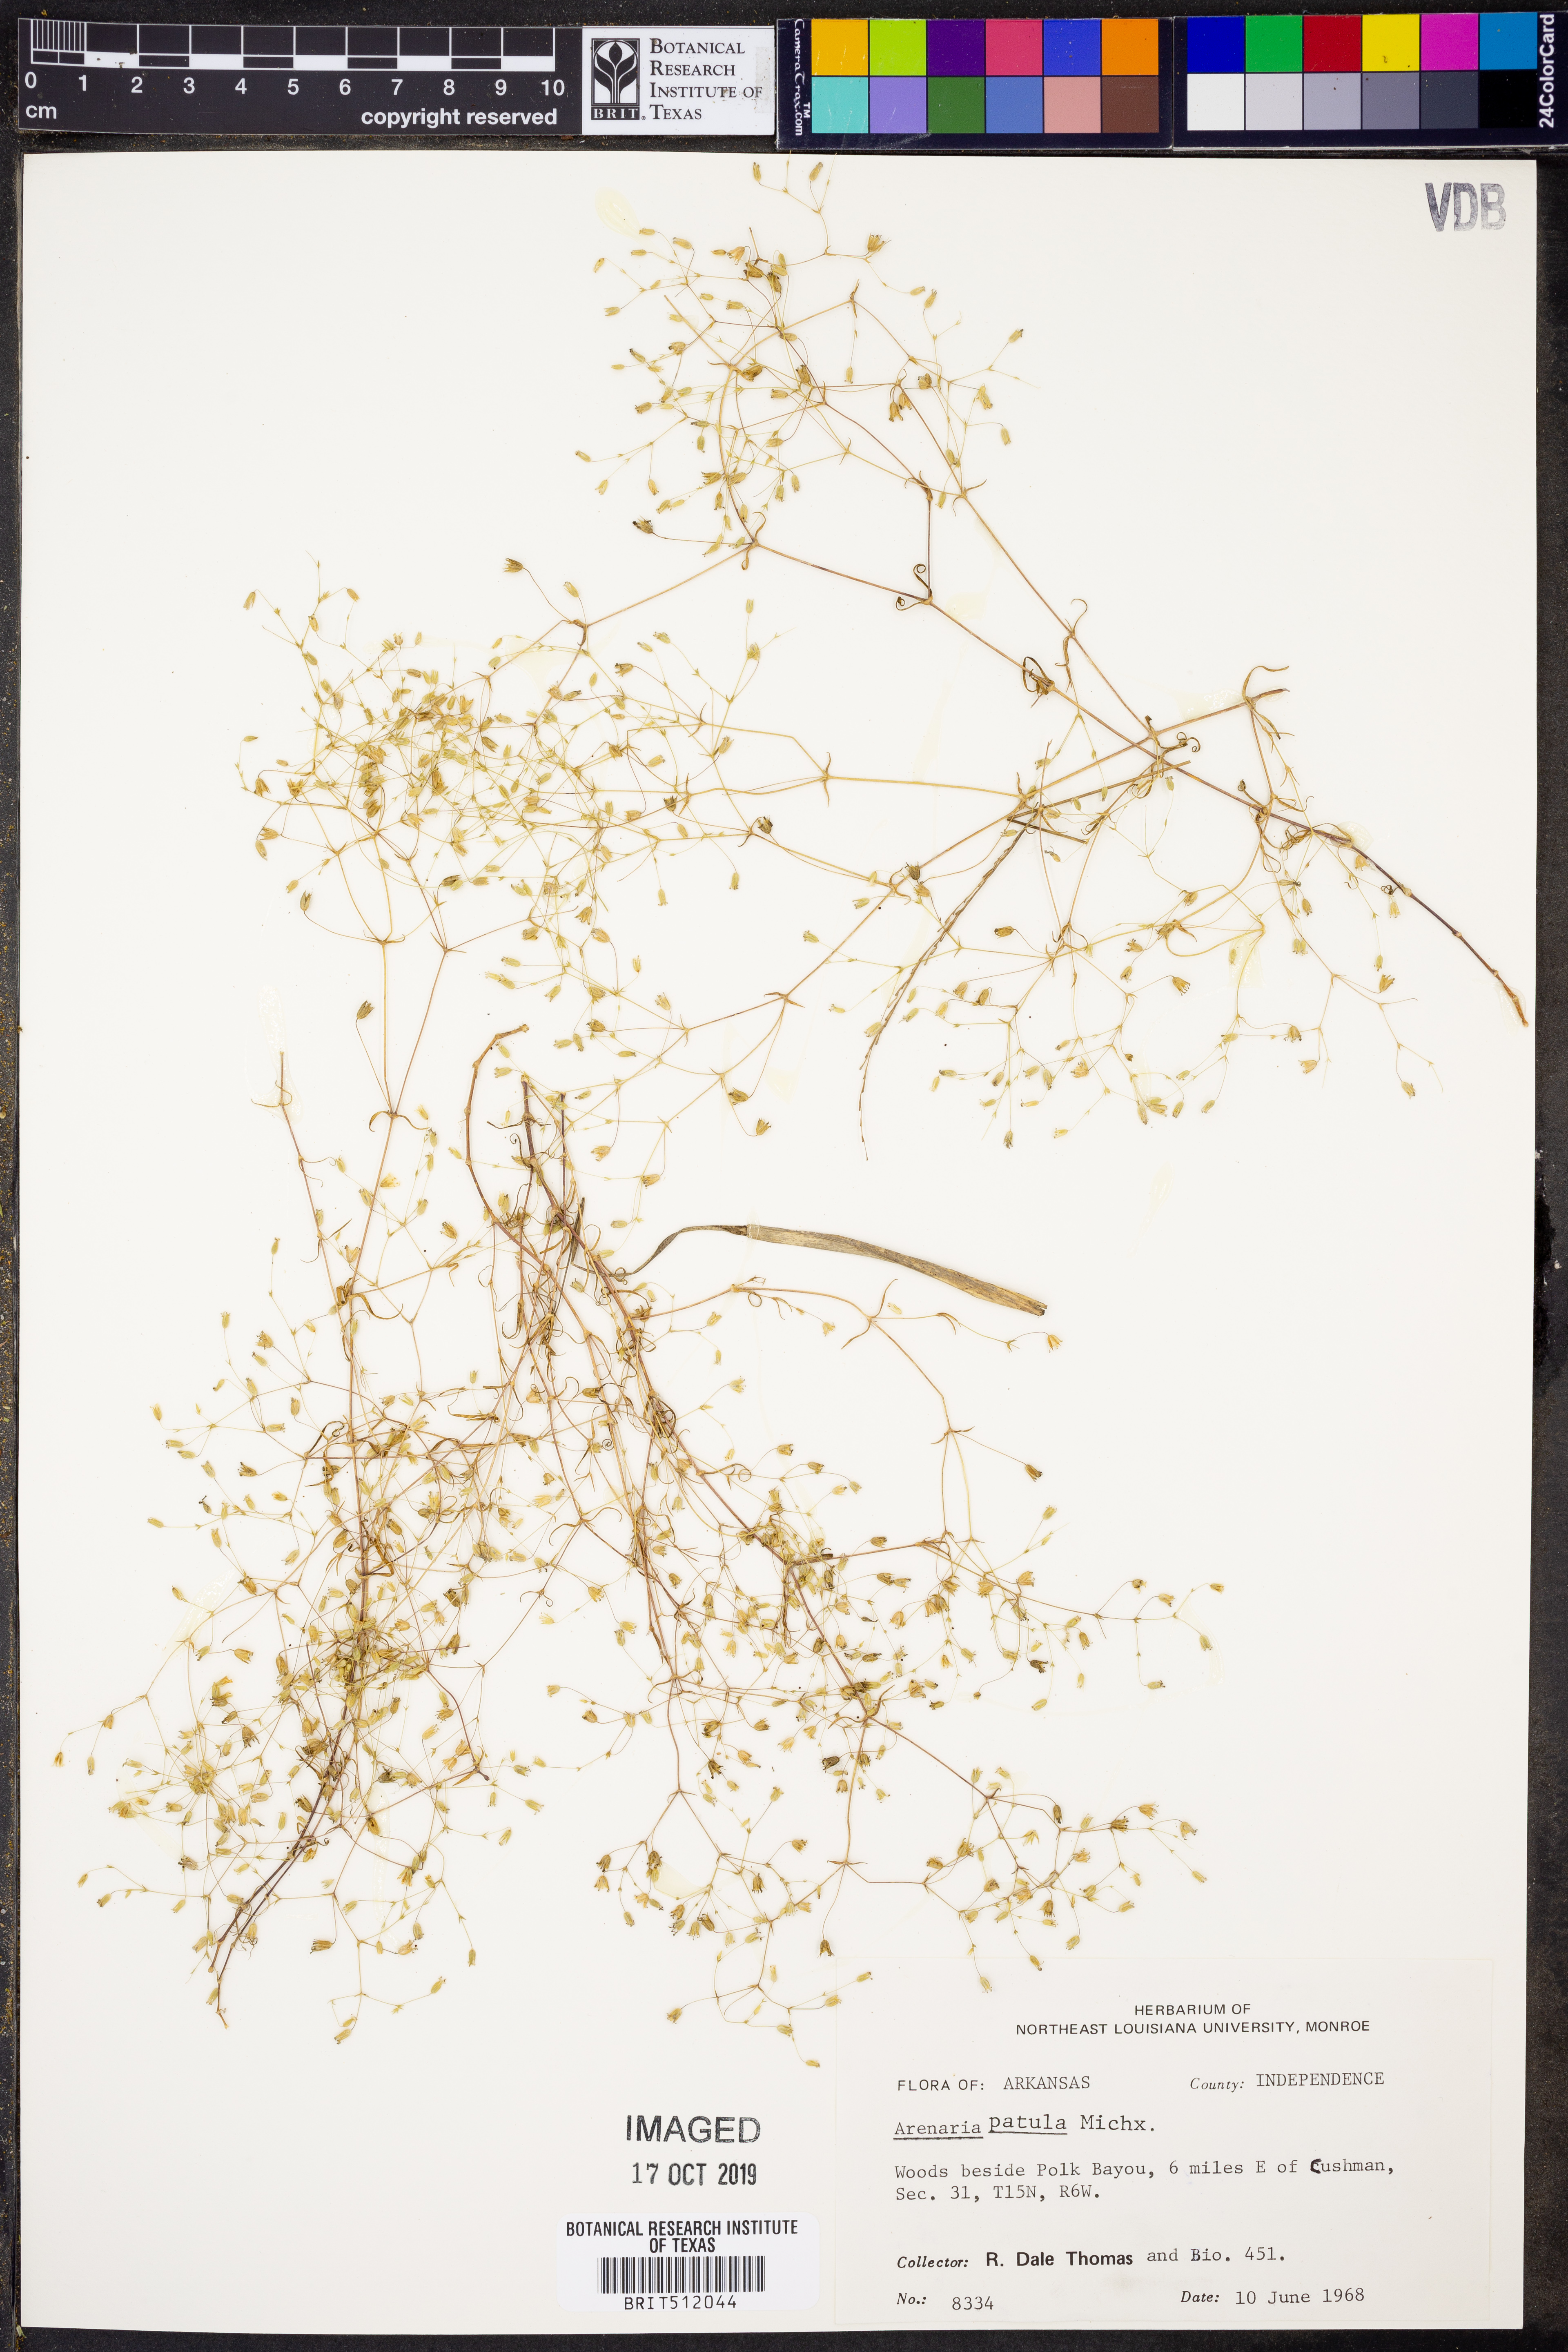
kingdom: Plantae
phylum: Tracheophyta
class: Magnoliopsida
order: Caryophyllales
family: Caryophyllaceae
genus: Mononeuria
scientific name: Mononeuria patula
